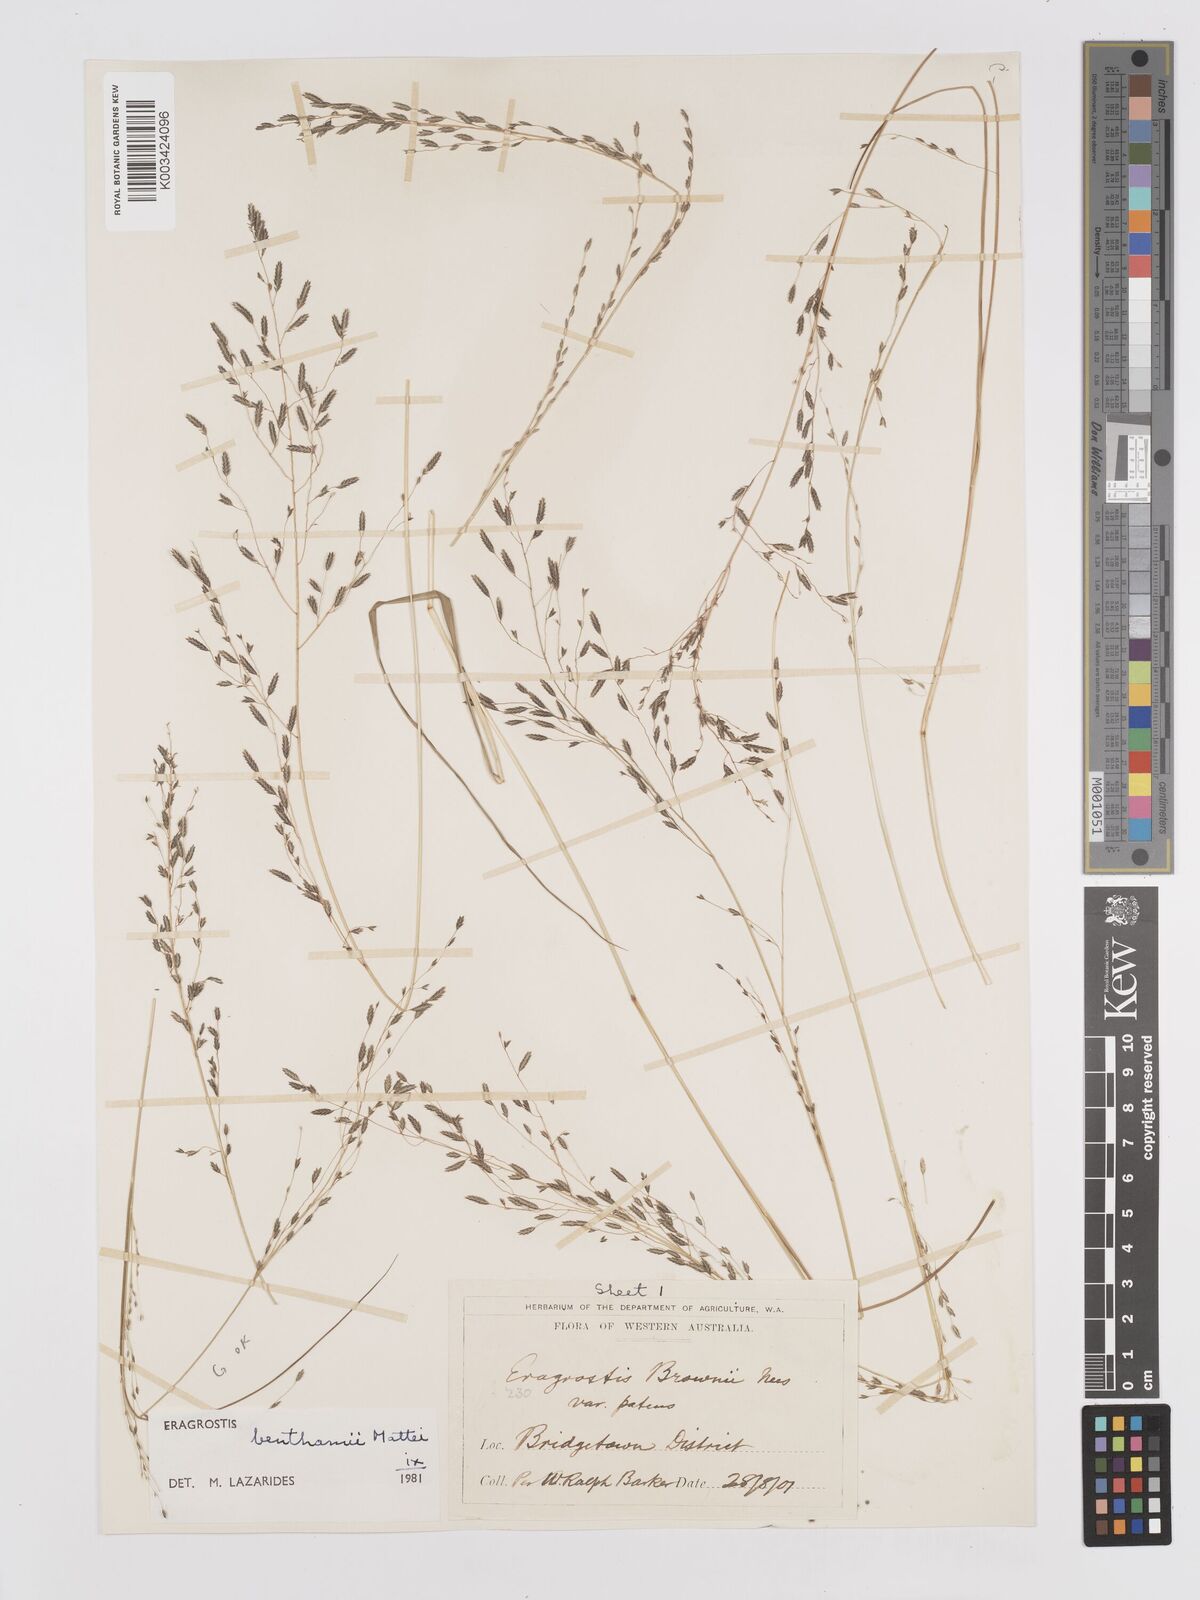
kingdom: Plantae
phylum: Tracheophyta
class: Liliopsida
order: Poales
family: Poaceae
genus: Eragrostis
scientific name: Eragrostis brownii
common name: Lovegrass
